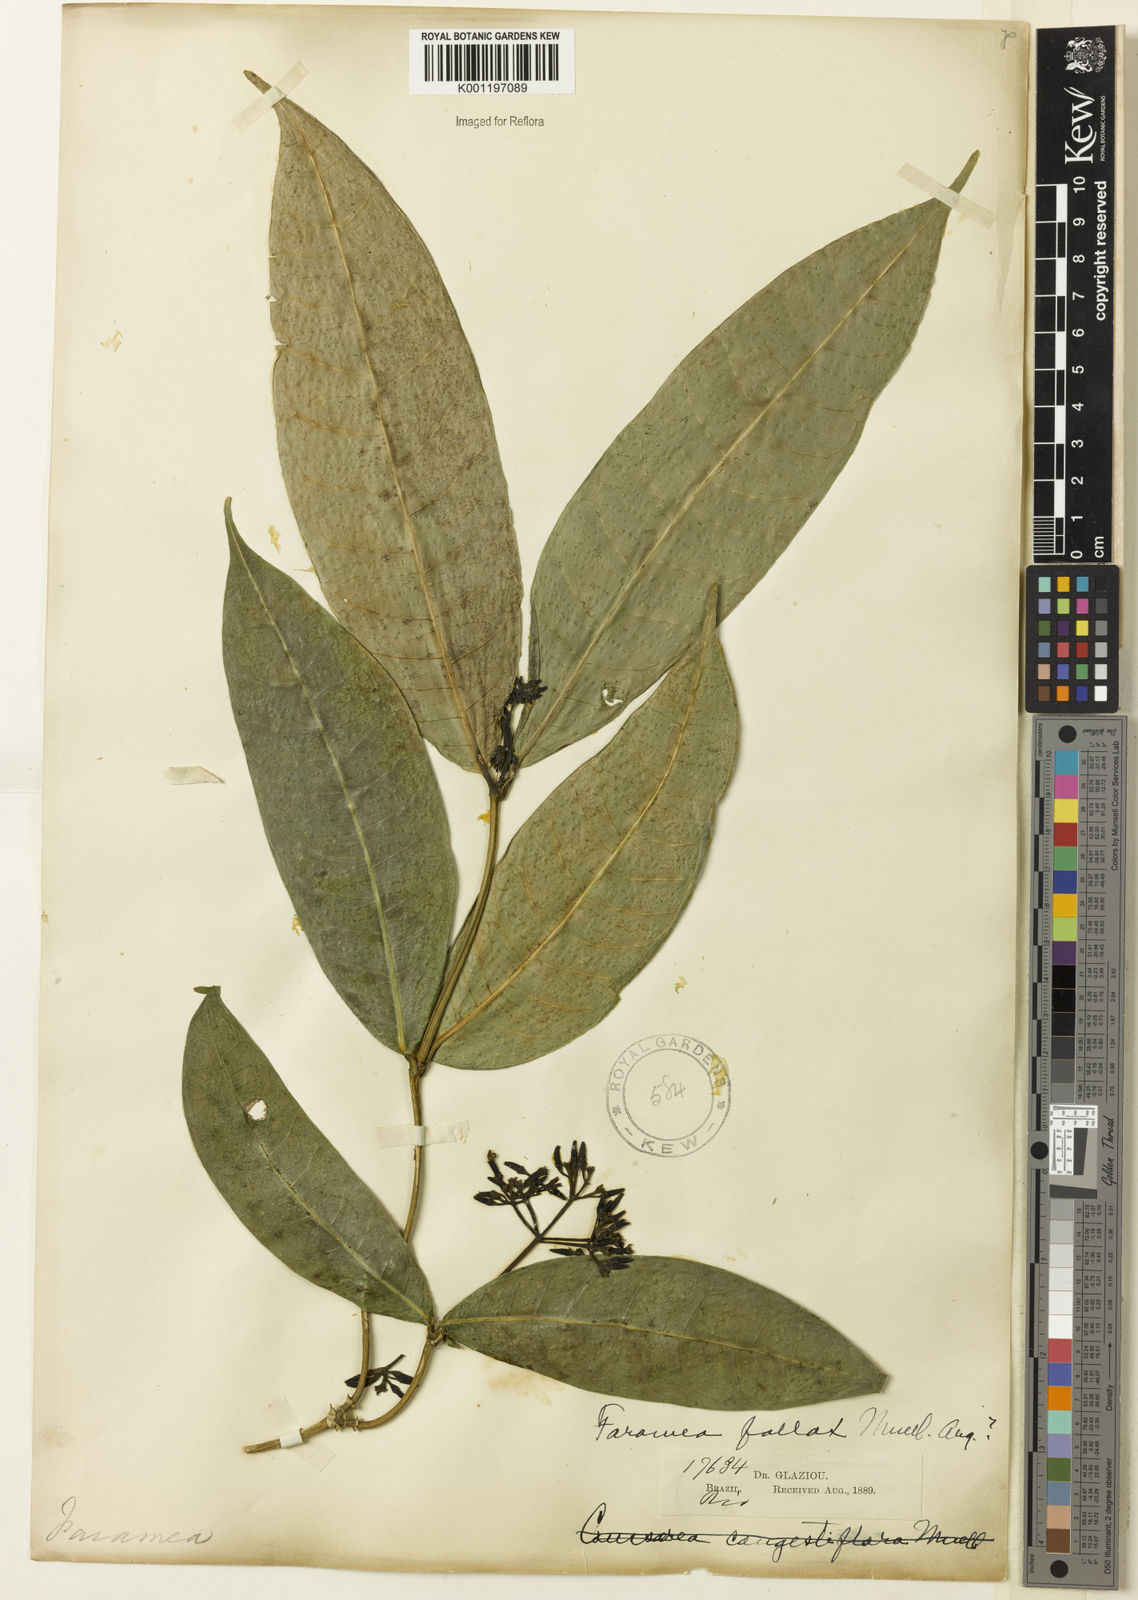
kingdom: Plantae
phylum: Tracheophyta
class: Magnoliopsida
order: Gentianales
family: Rubiaceae
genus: Faramea
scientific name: Faramea
